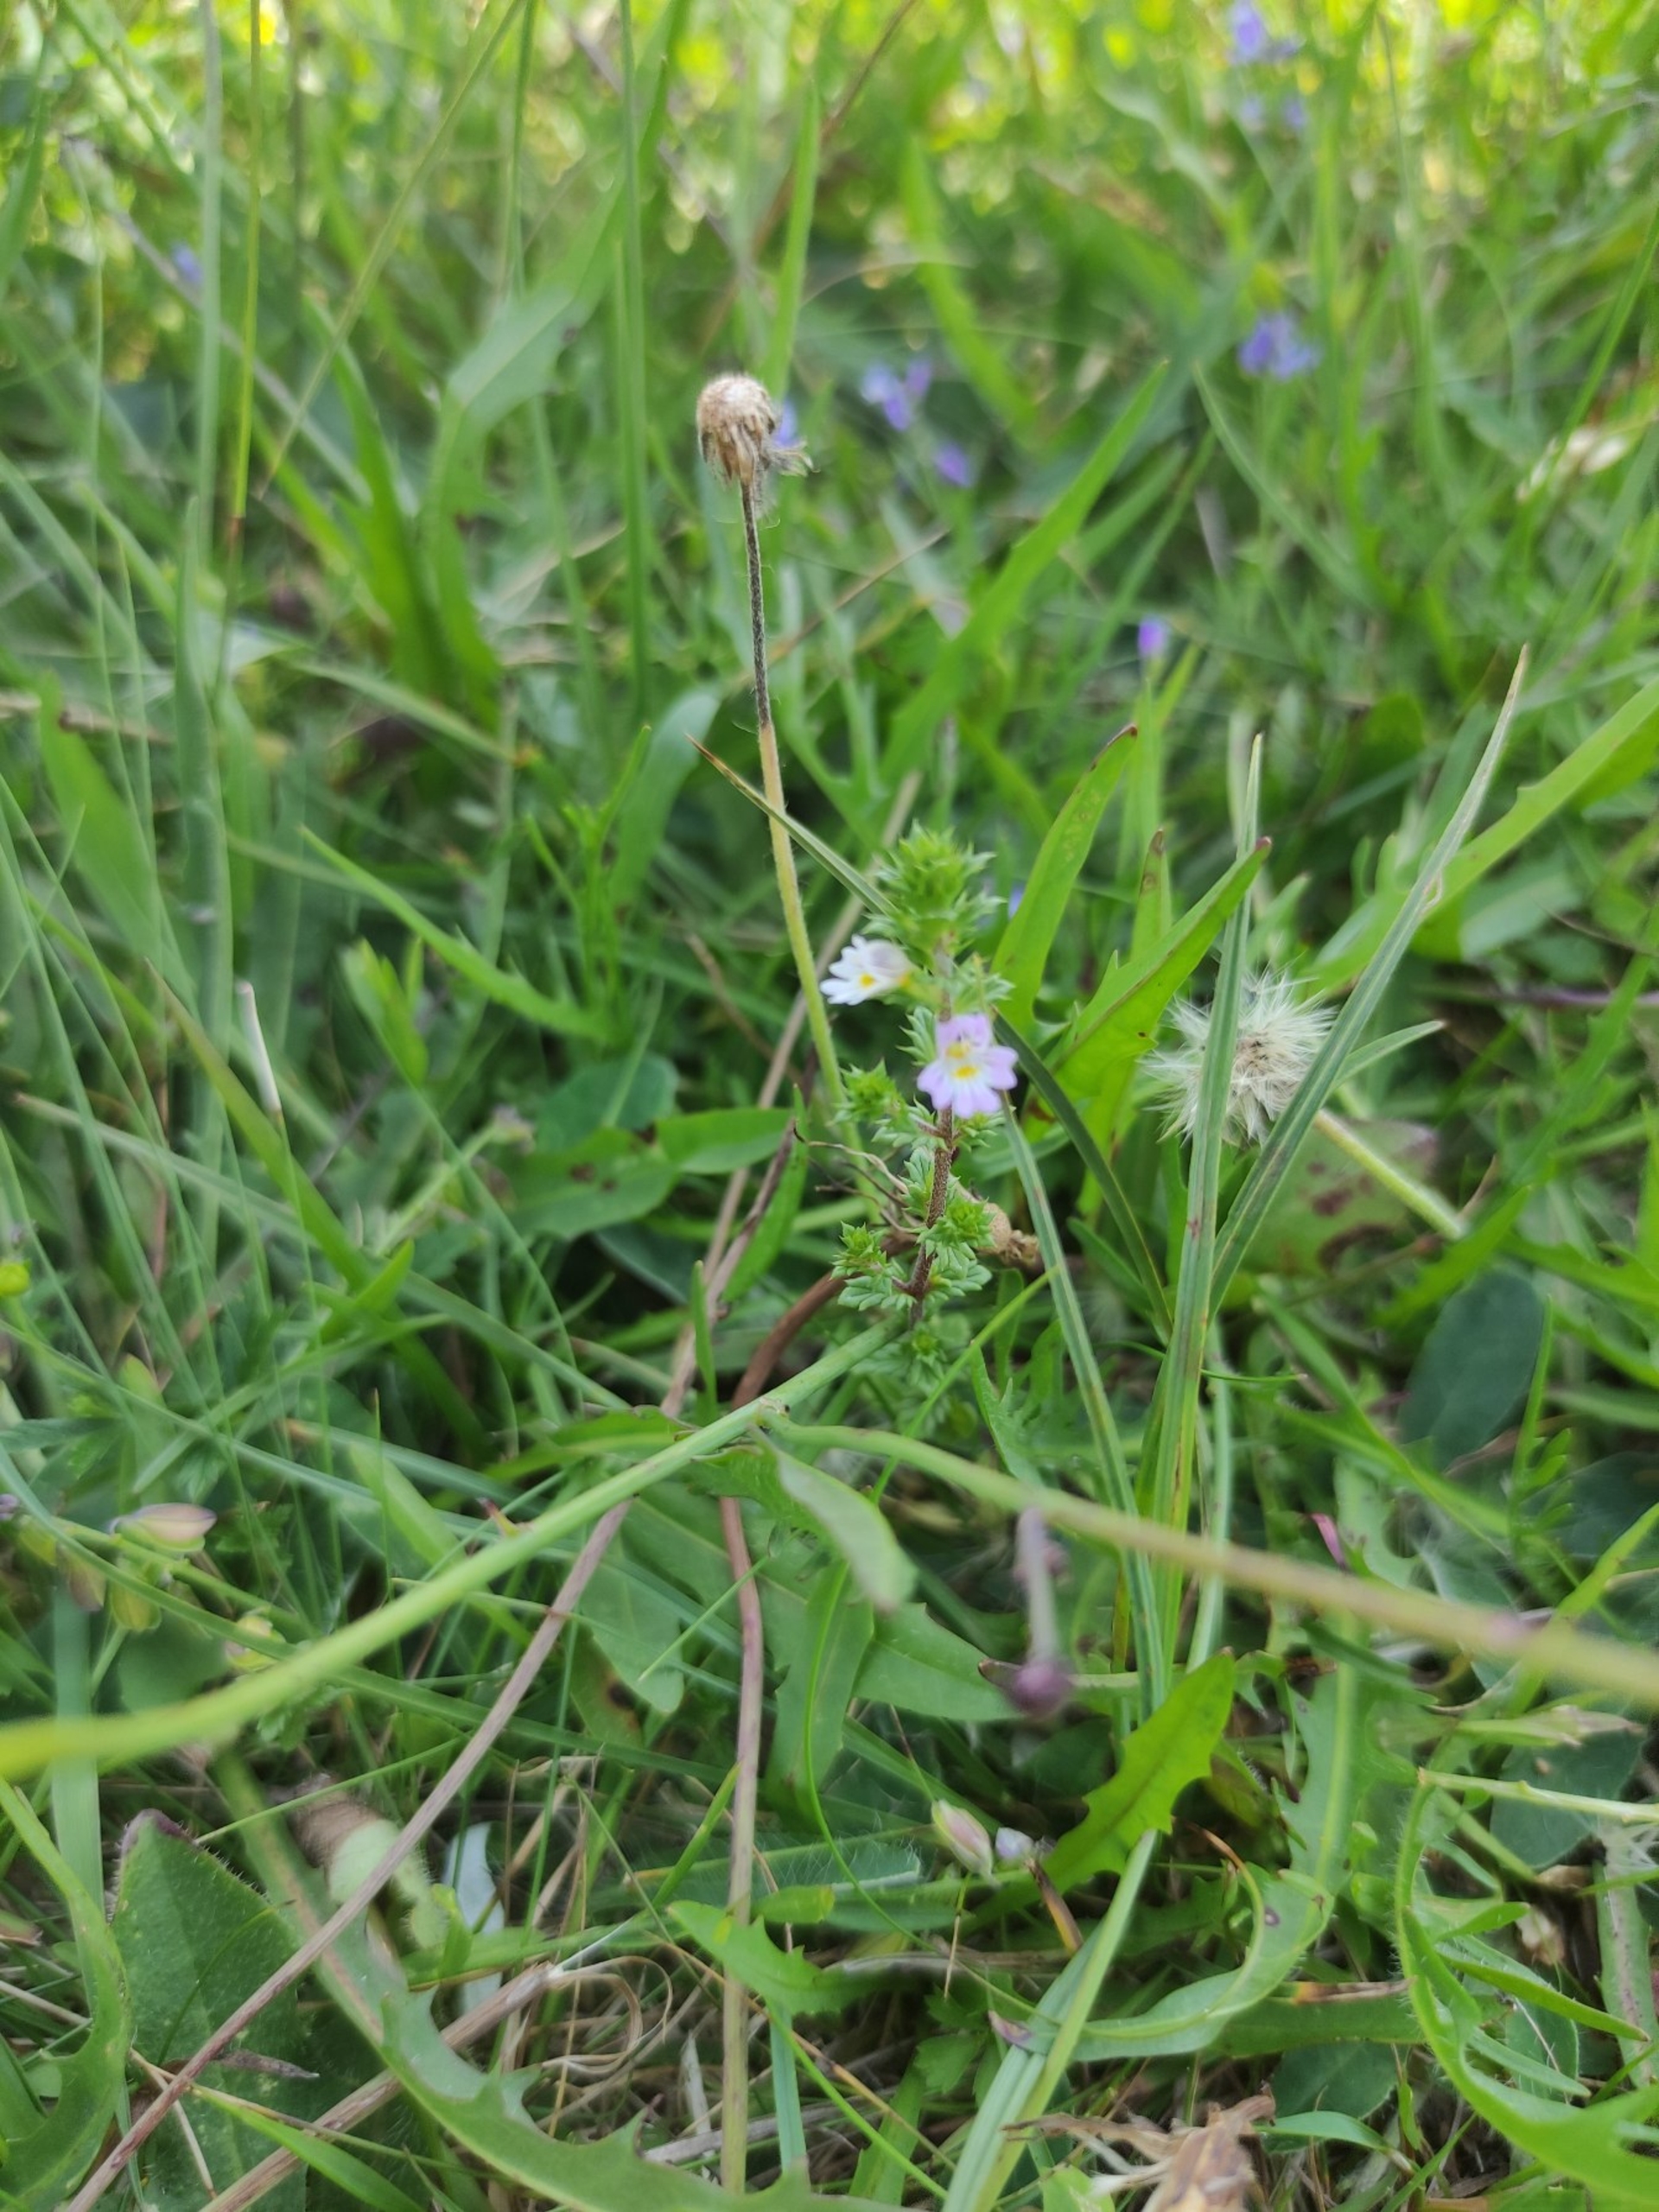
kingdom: Plantae
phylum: Tracheophyta
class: Magnoliopsida
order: Lamiales
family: Orobanchaceae
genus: Euphrasia
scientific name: Euphrasia
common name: Øjentrøstslægten
